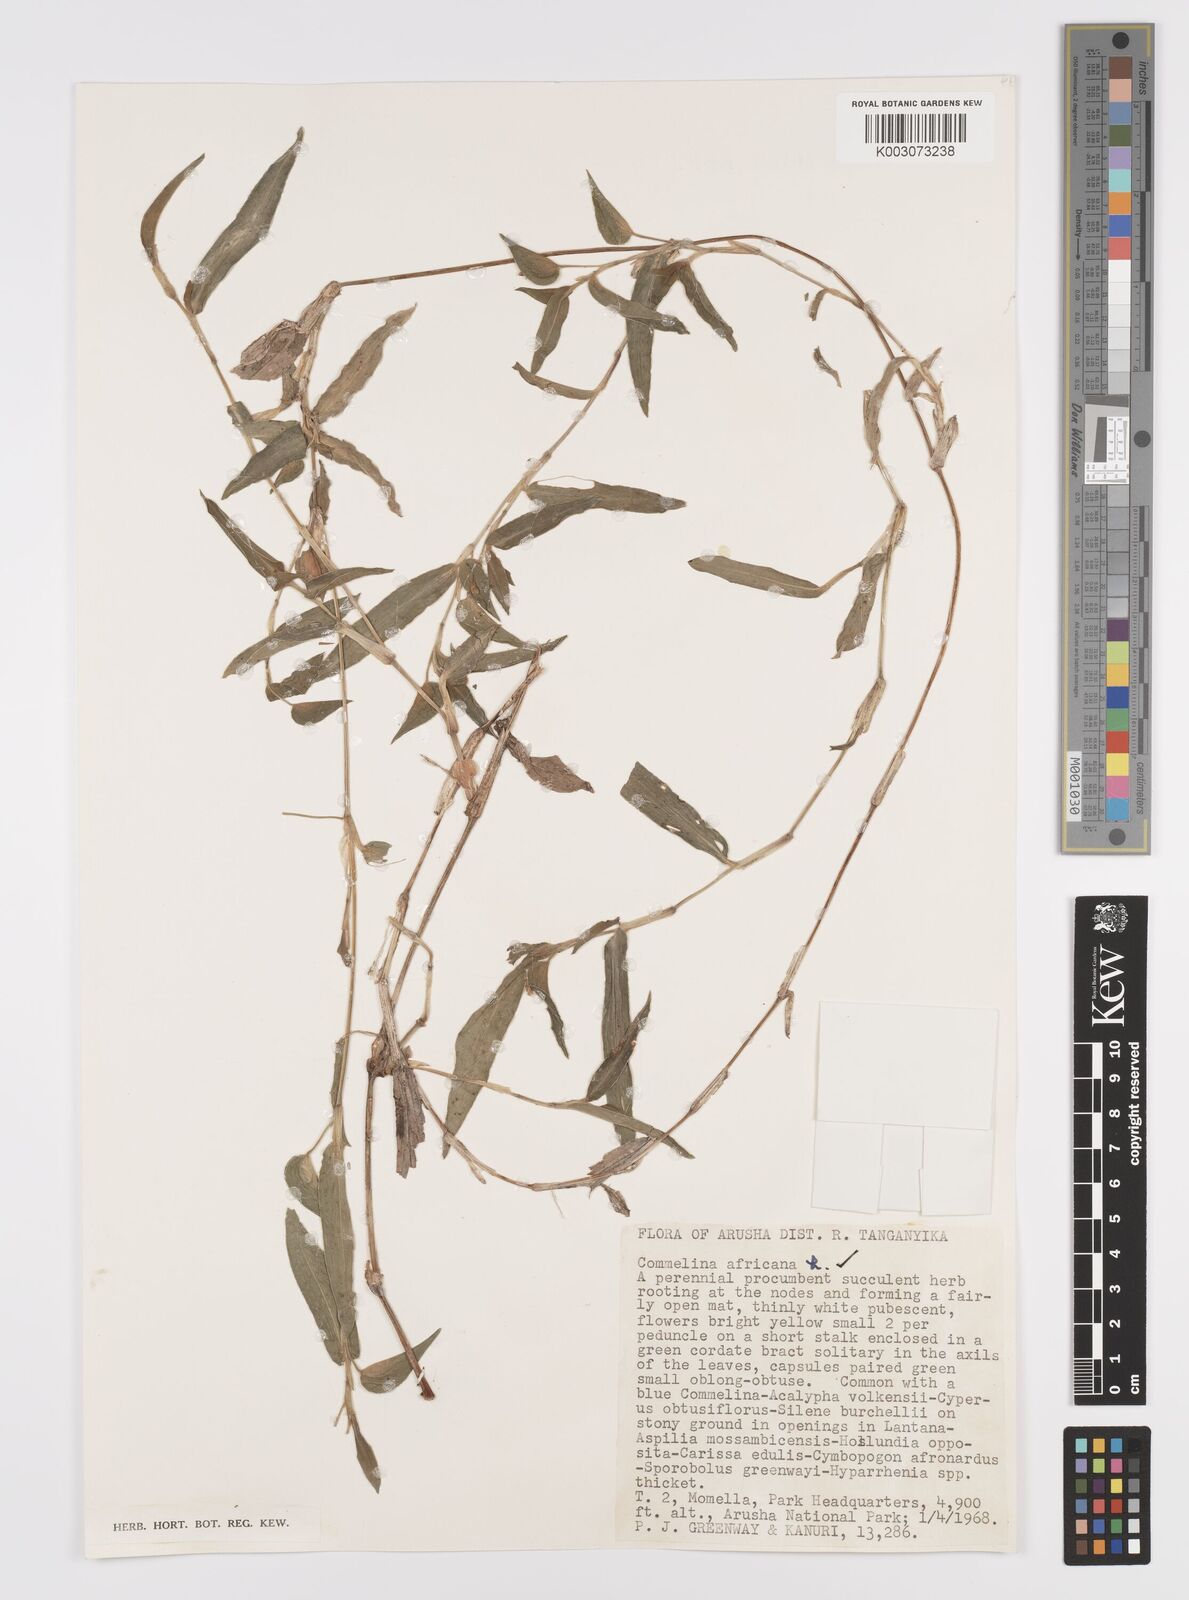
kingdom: Plantae
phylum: Tracheophyta
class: Liliopsida
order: Commelinales
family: Commelinaceae
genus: Commelina
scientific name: Commelina africana
